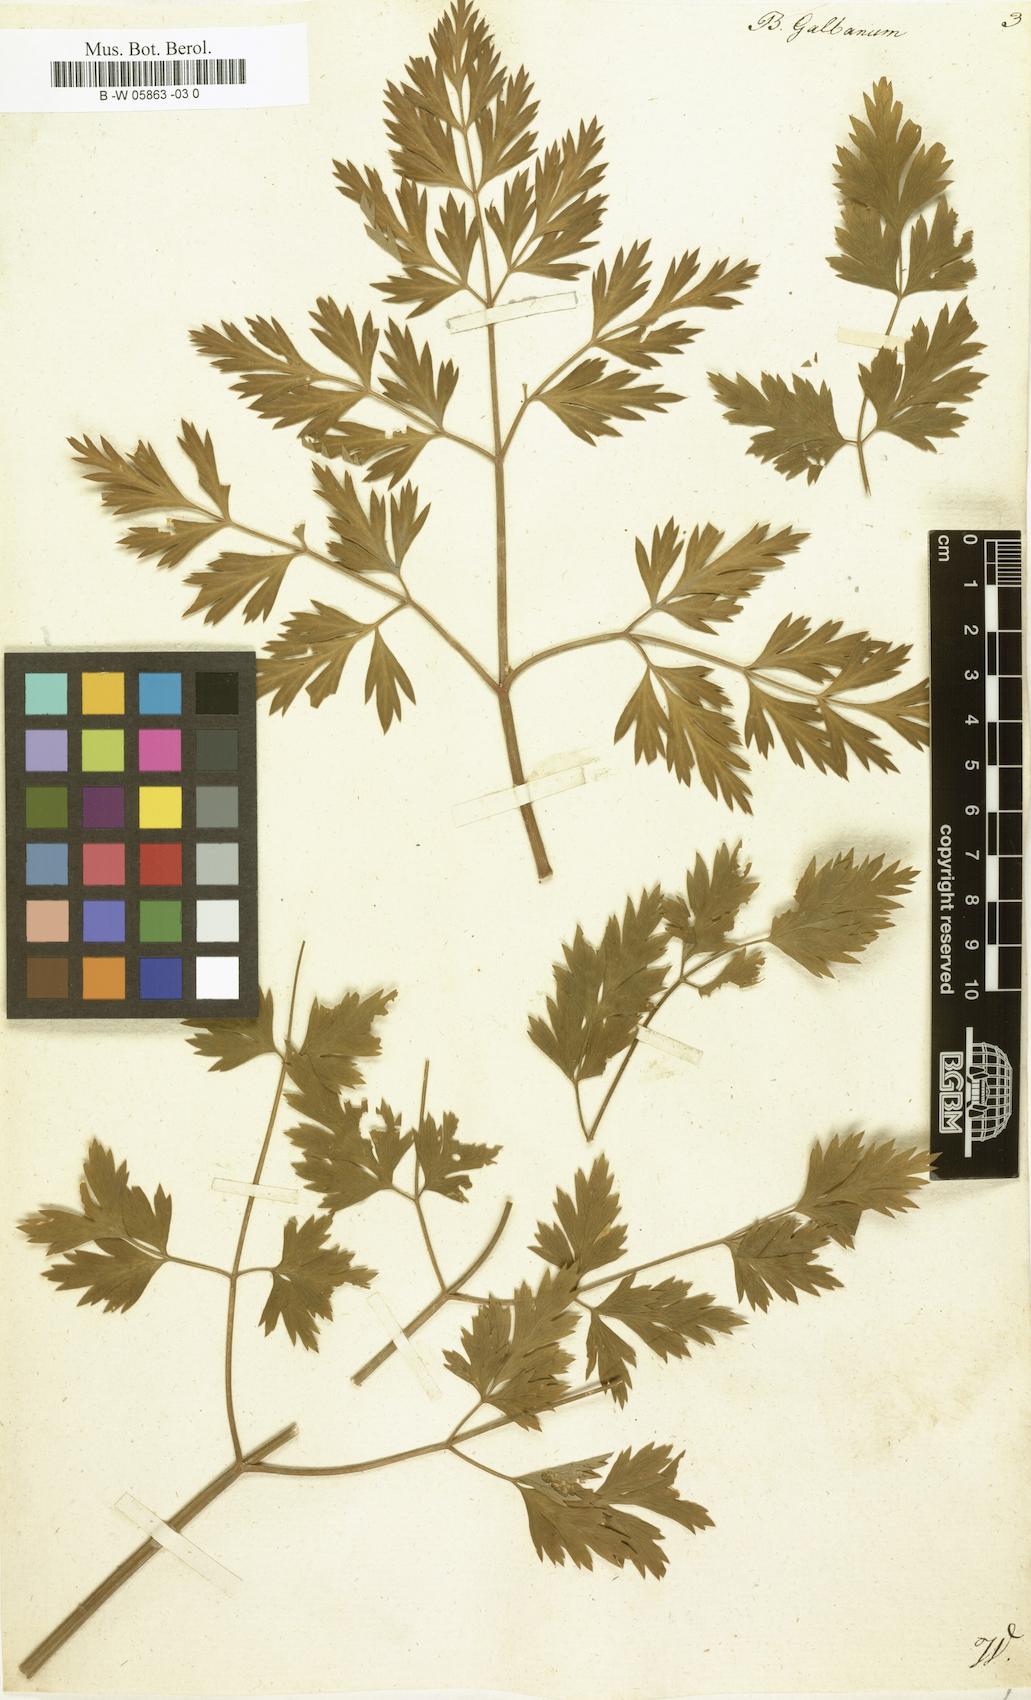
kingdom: Plantae
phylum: Tracheophyta
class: Magnoliopsida
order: Apiales
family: Apiaceae
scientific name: Apiaceae
